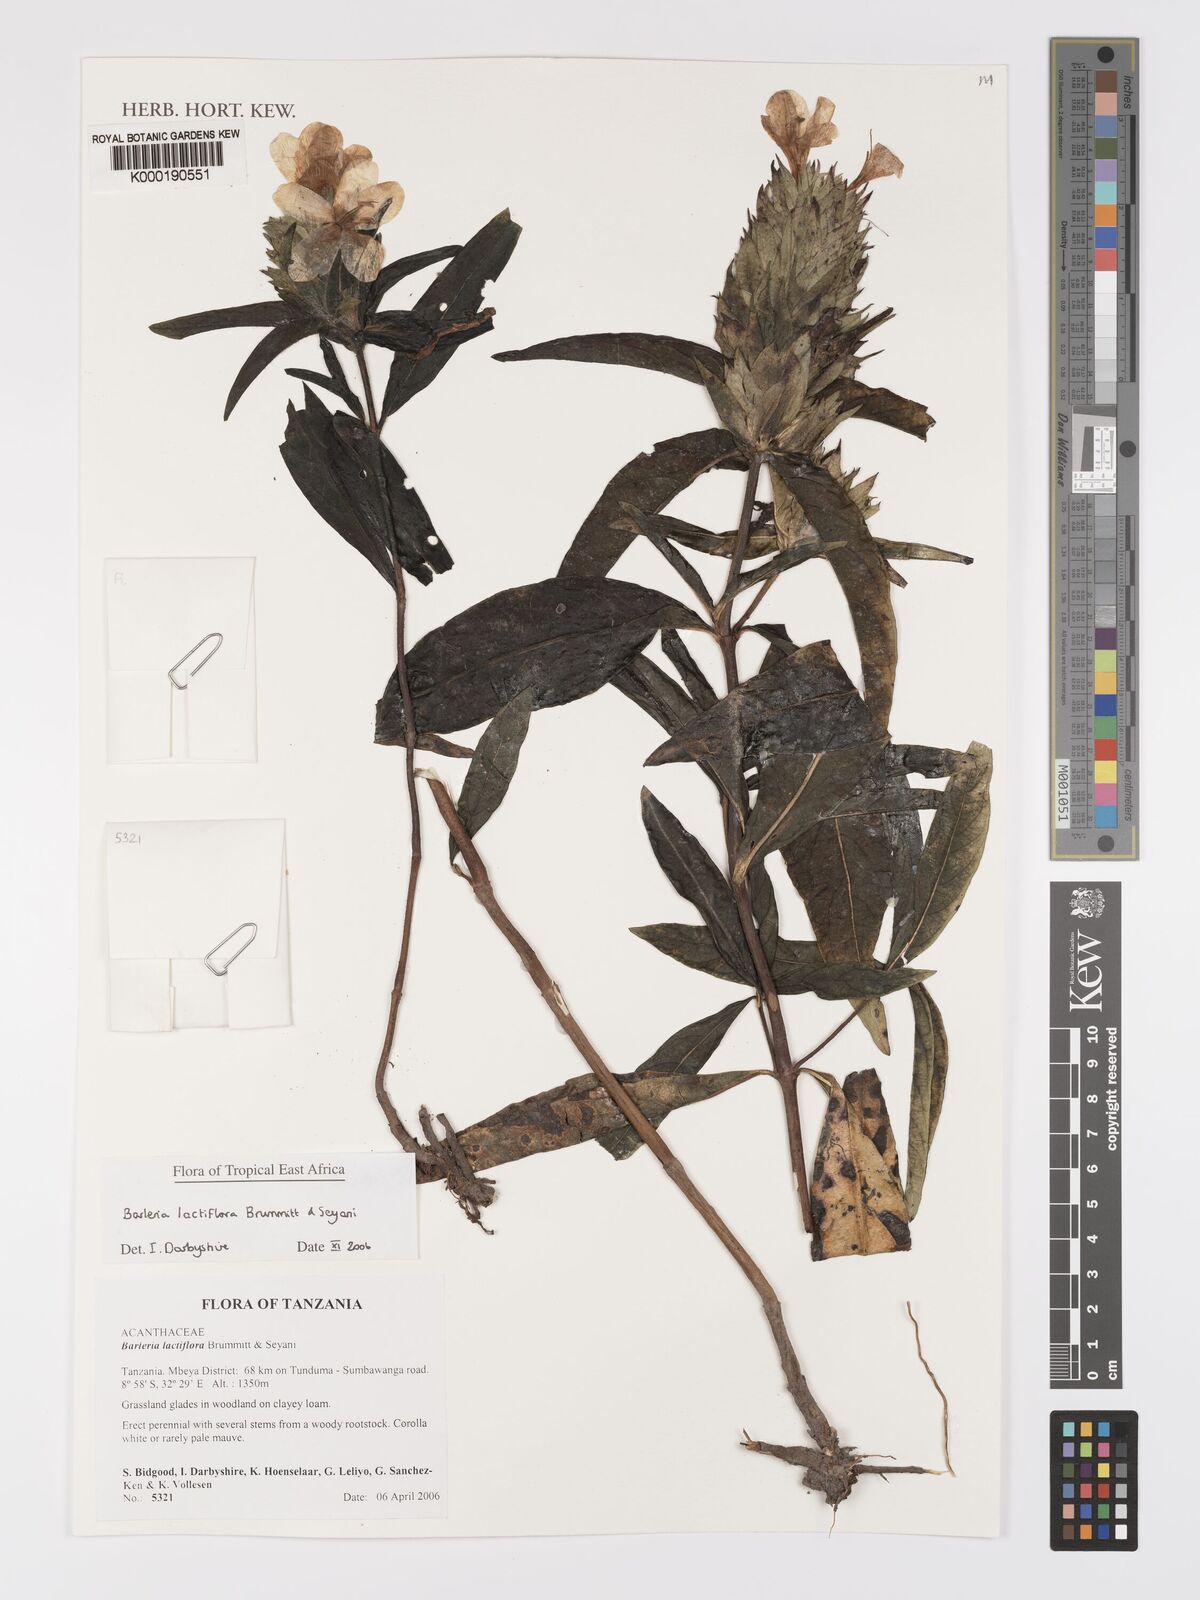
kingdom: Plantae
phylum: Tracheophyta
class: Magnoliopsida
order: Lamiales
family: Acanthaceae
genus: Barleria
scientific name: Barleria lactiflora
